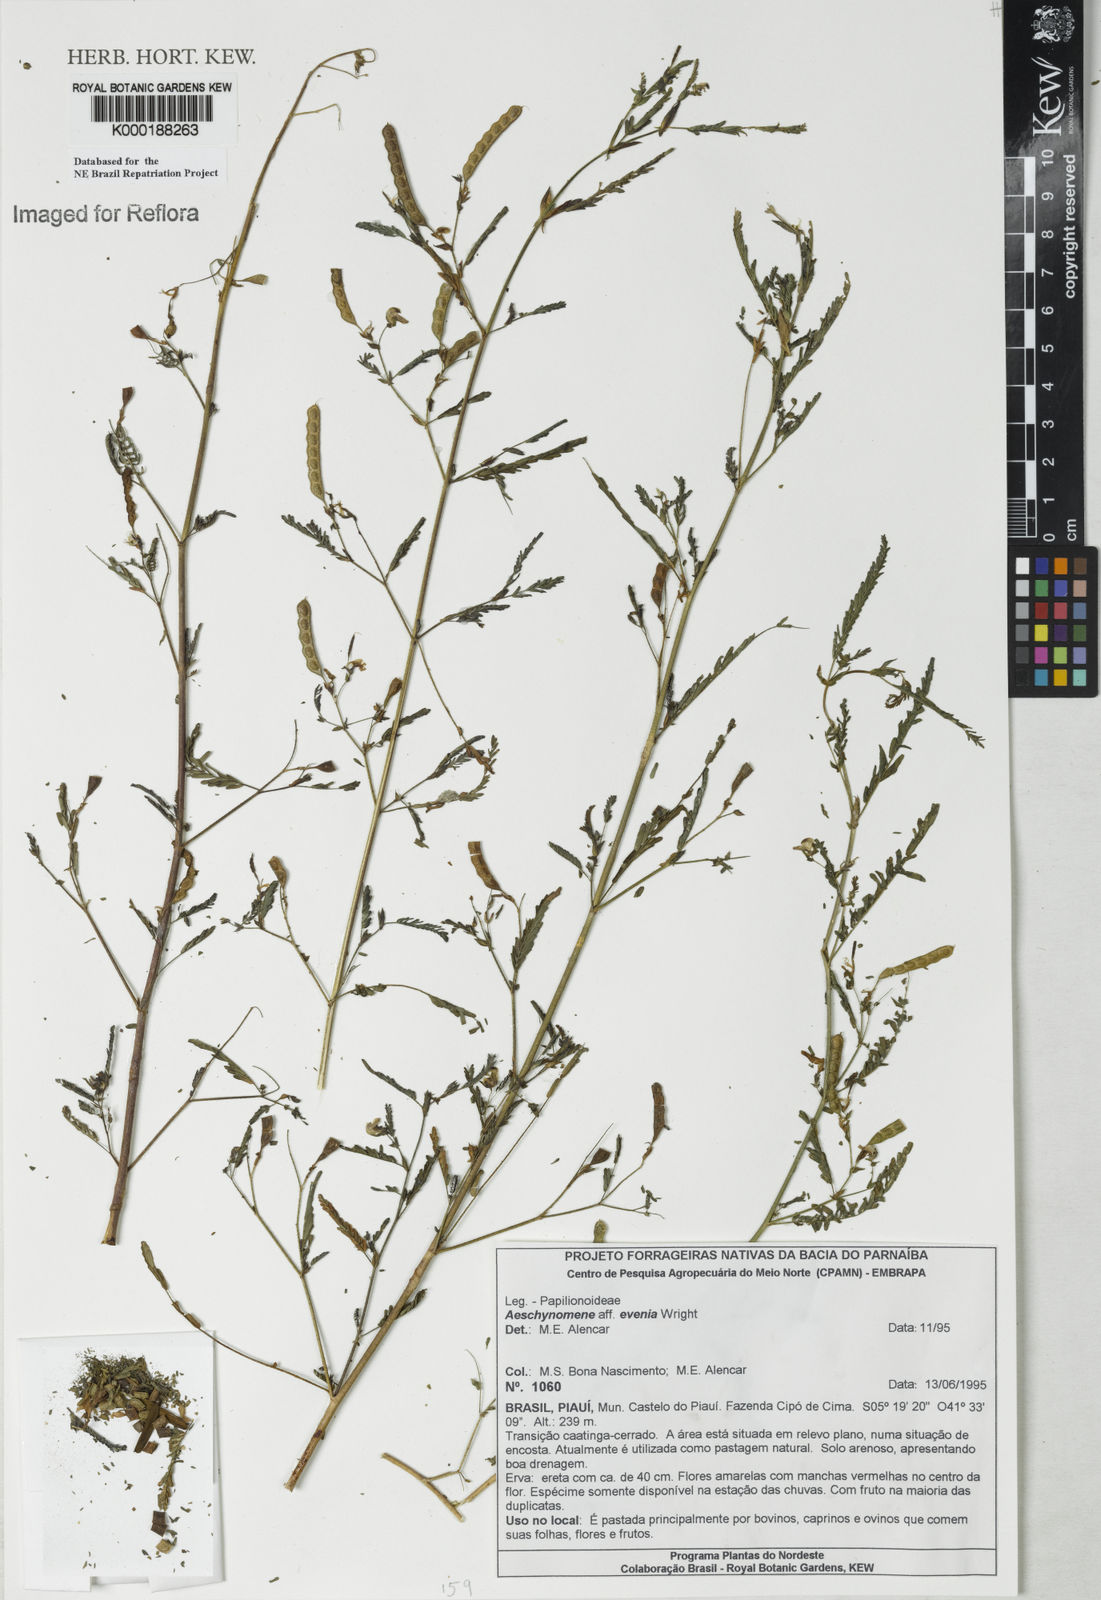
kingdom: Plantae
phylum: Tracheophyta
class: Magnoliopsida
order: Fabales
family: Fabaceae
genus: Aeschynomene
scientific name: Aeschynomene evenia
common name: Shrubby jointvetch
